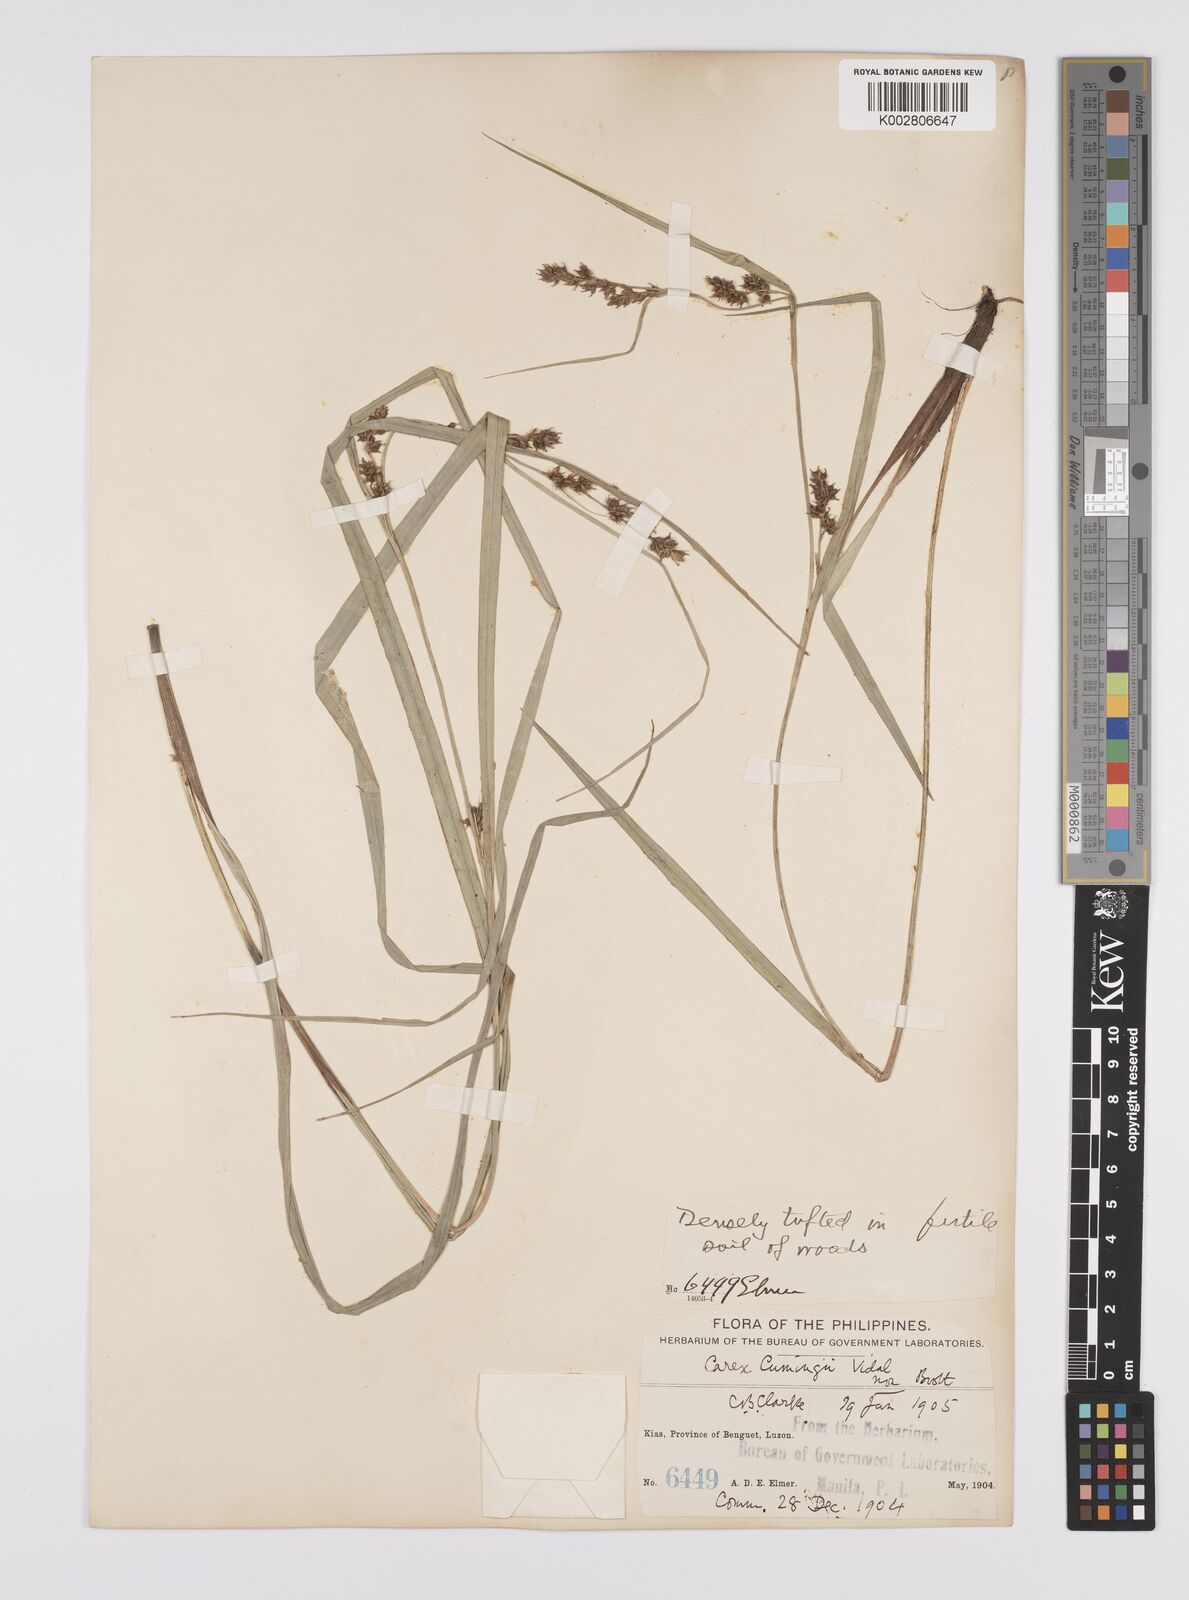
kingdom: Plantae
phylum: Tracheophyta
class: Liliopsida
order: Poales
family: Cyperaceae
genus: Carex
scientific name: Carex nodiflora
